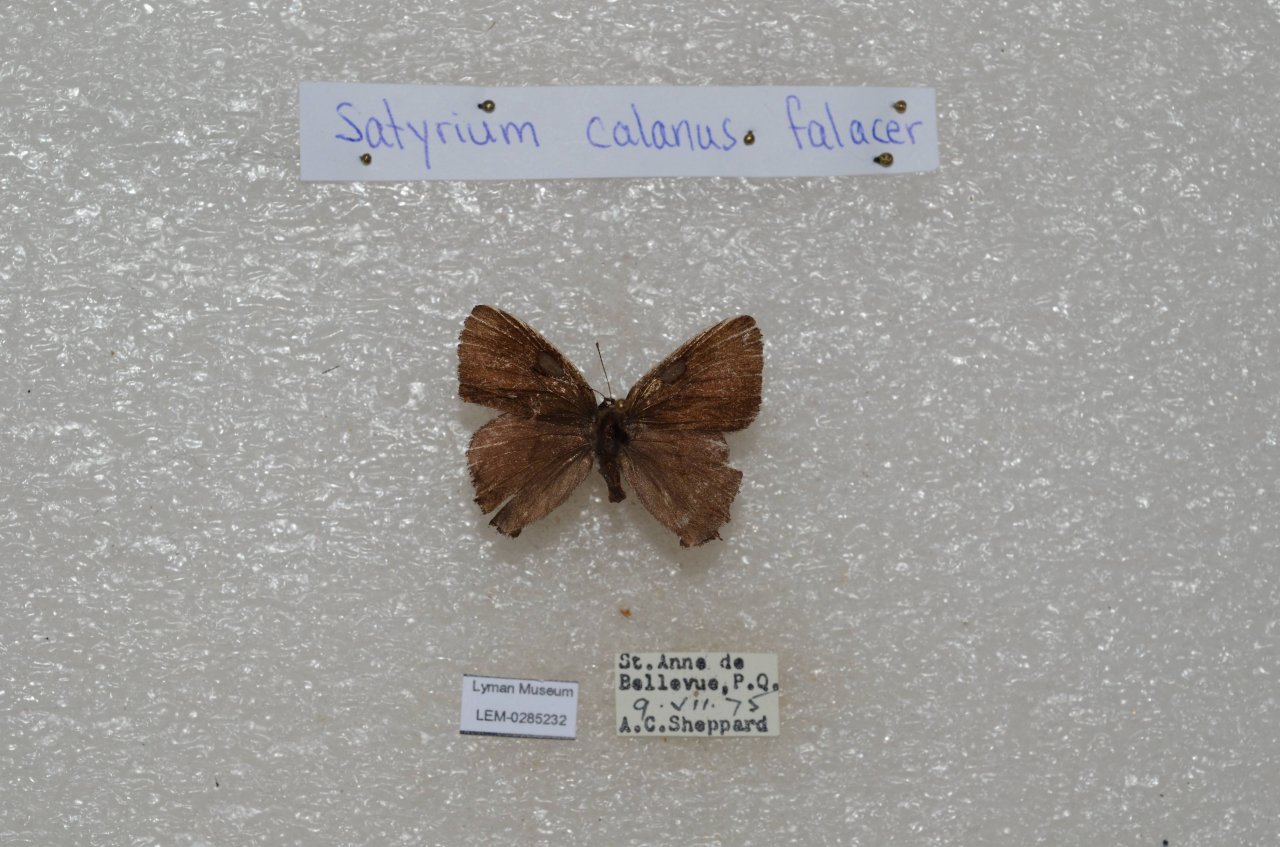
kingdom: Animalia
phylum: Arthropoda
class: Insecta
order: Lepidoptera
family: Lycaenidae
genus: Satyrium
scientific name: Satyrium calanus
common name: Banded Hairstreak
